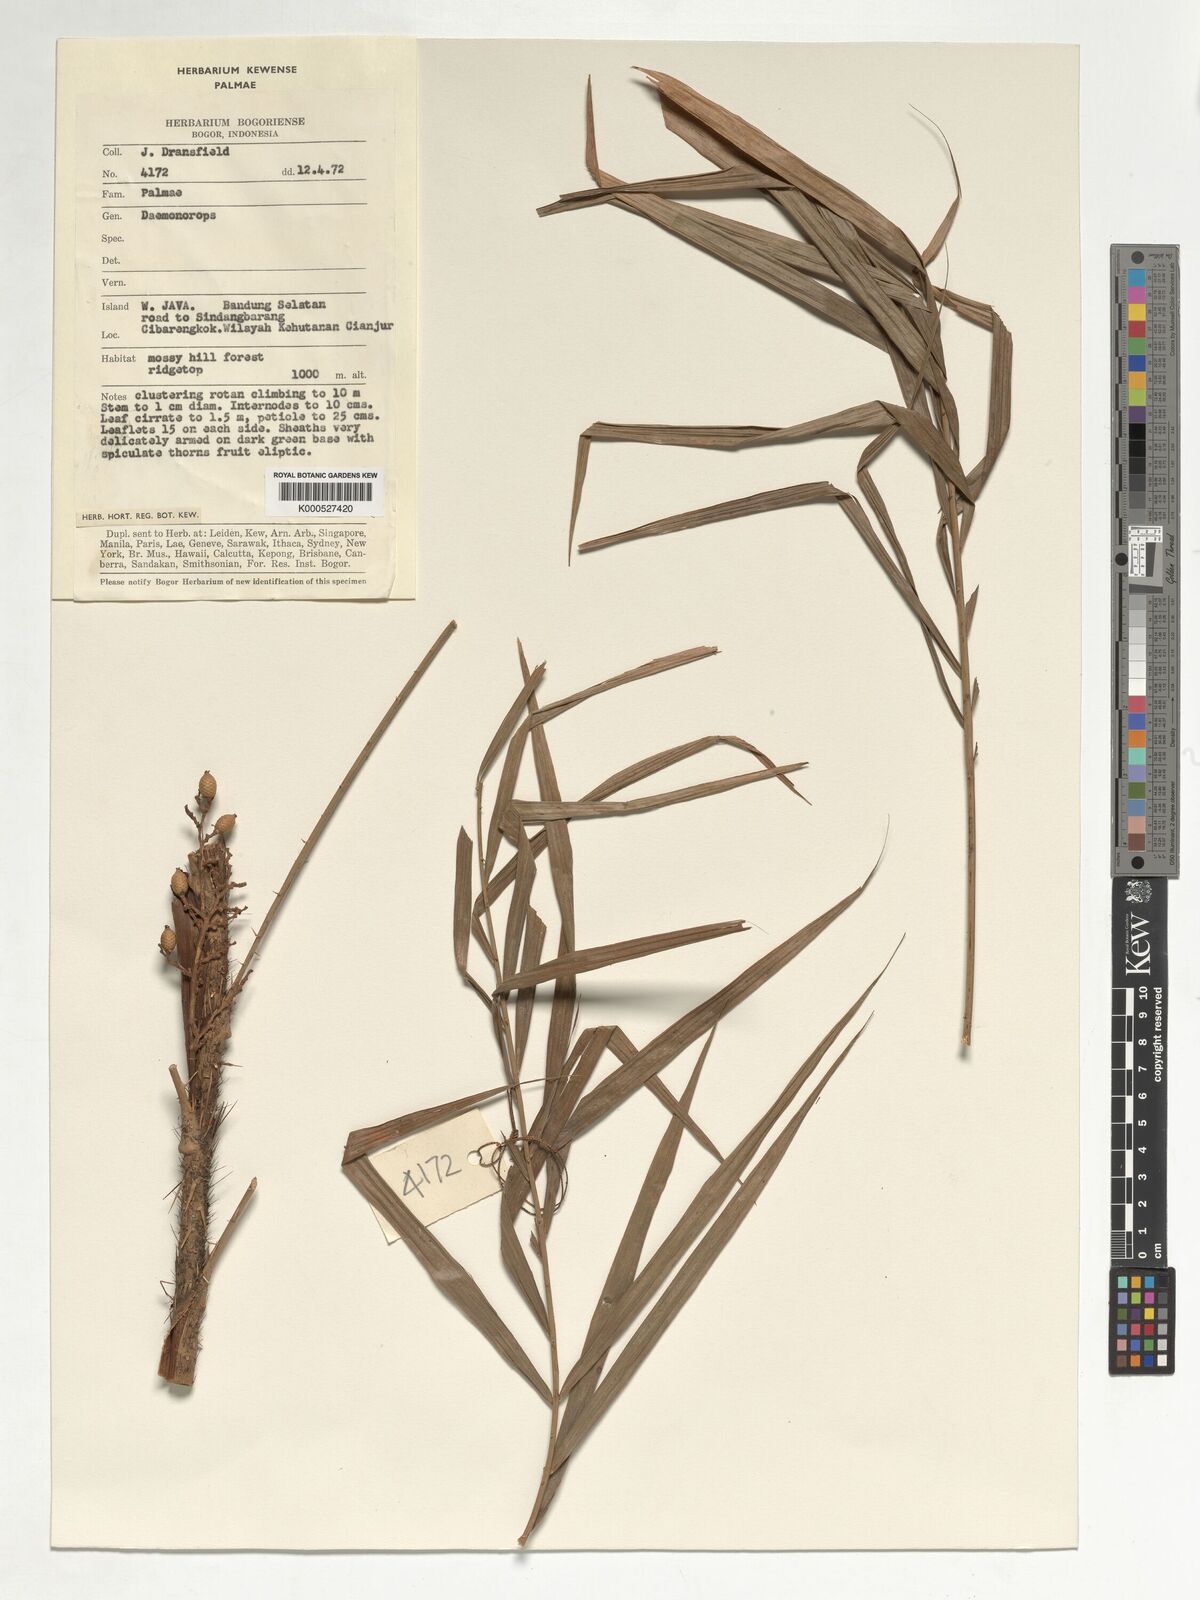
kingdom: Plantae
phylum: Tracheophyta
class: Liliopsida
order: Arecales
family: Arecaceae
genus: Calamus
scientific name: Calamus oblongus
